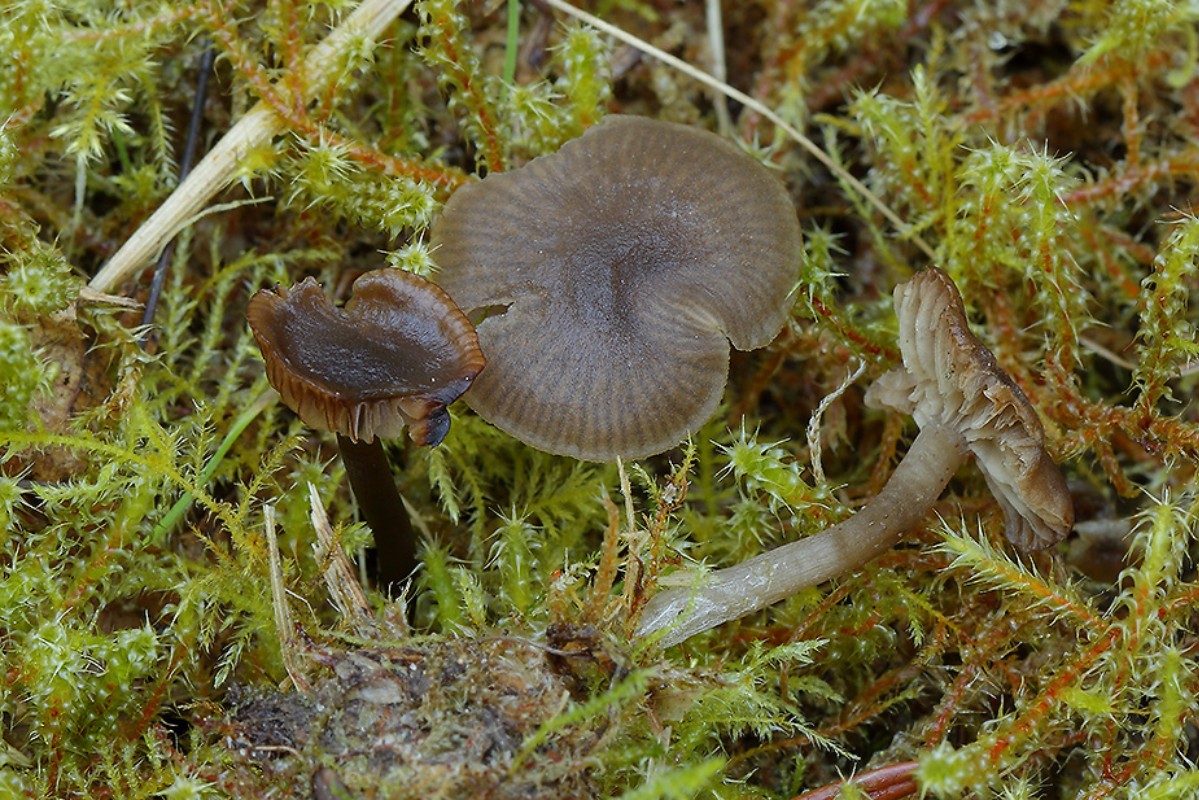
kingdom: Fungi
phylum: Basidiomycota
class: Agaricomycetes
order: Agaricales
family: Tricholomataceae
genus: Omphaliaster
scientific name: Omphaliaster asterosporus
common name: narrehat
